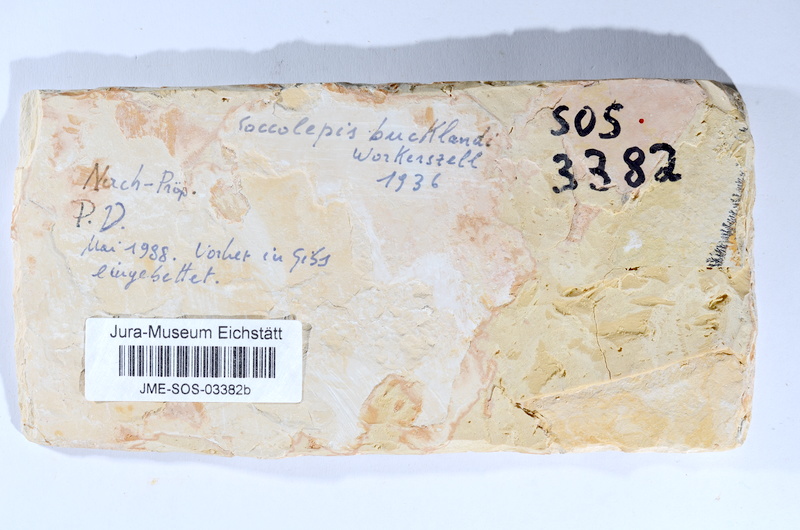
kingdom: Animalia
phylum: Chordata
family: Coccolepididae
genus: Coccolepis
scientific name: Coccolepis bucklandi
